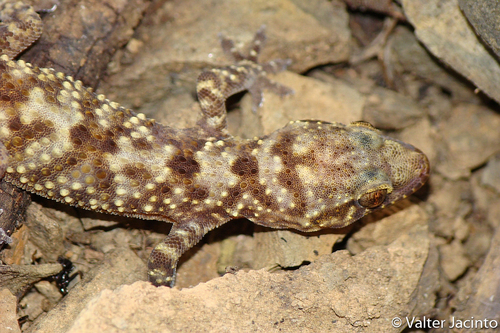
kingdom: Animalia
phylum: Chordata
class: Squamata
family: Gekkonidae
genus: Hemidactylus
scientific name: Hemidactylus turcicus
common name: Turkish gecko
